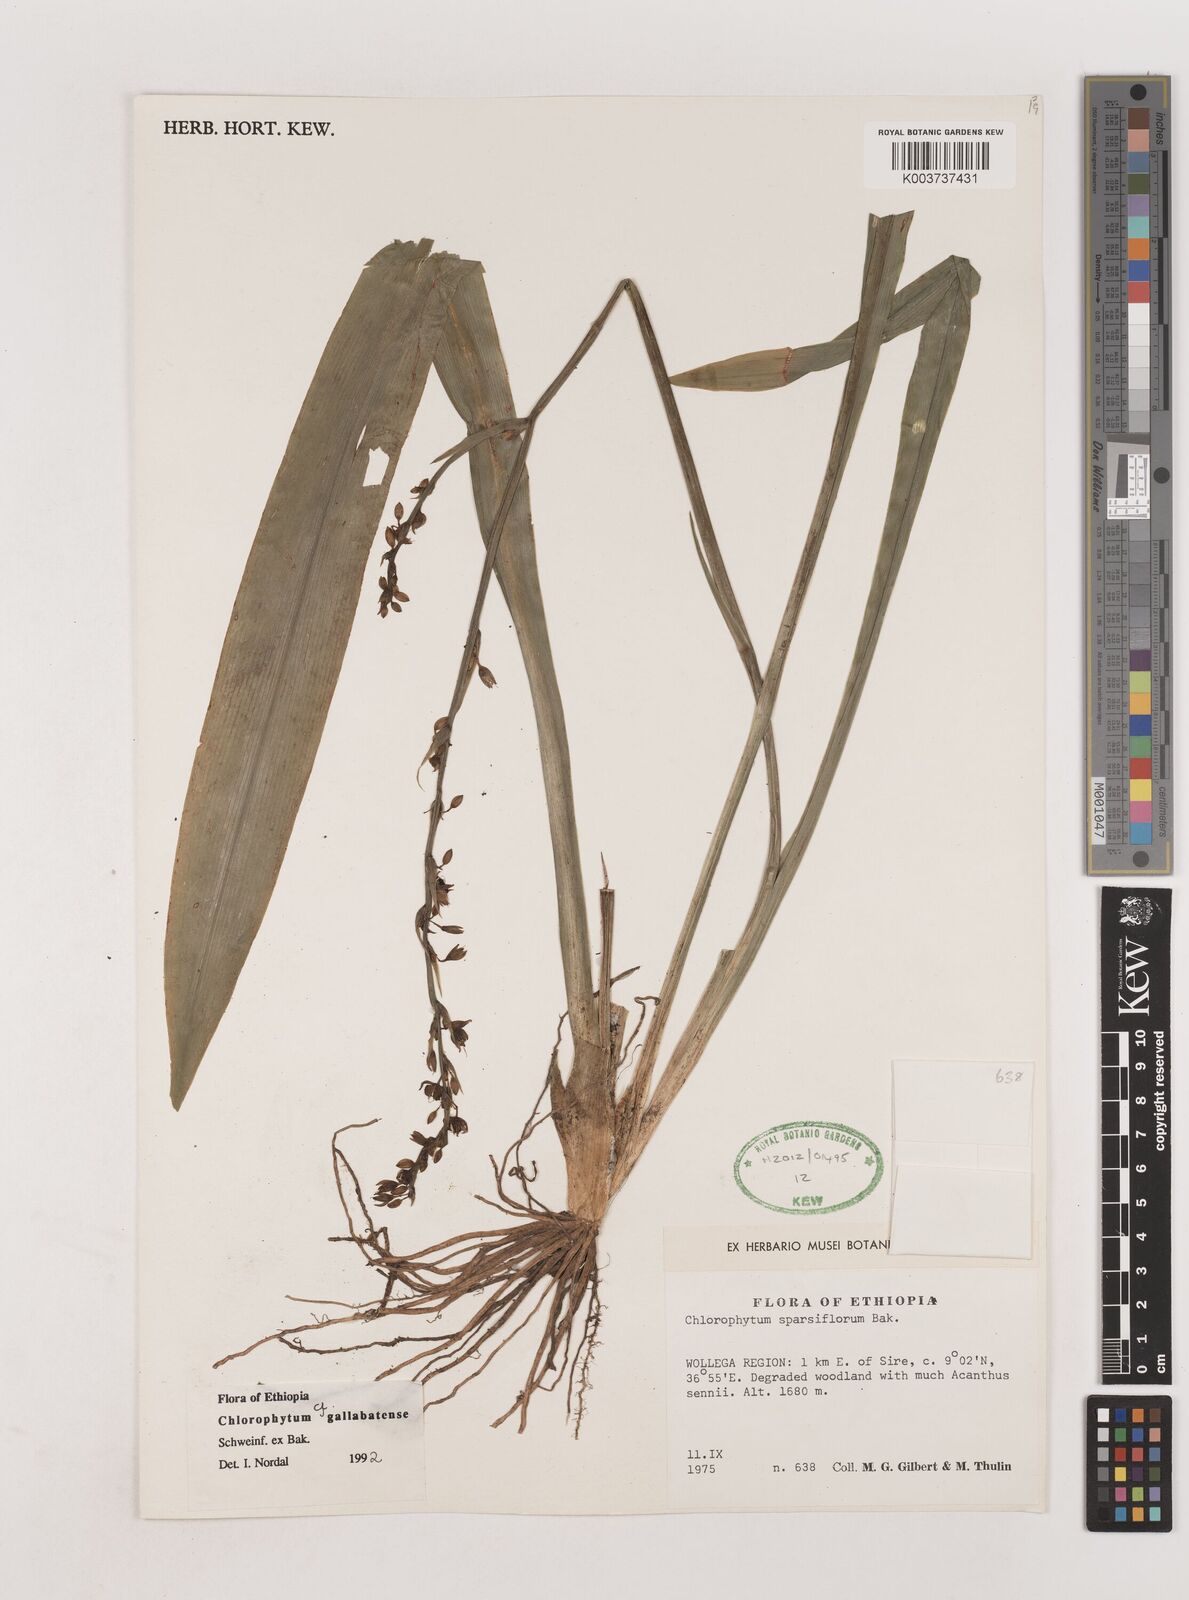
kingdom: Plantae
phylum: Tracheophyta
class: Liliopsida
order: Asparagales
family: Asparagaceae
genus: Chlorophytum
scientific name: Chlorophytum gallabatense
